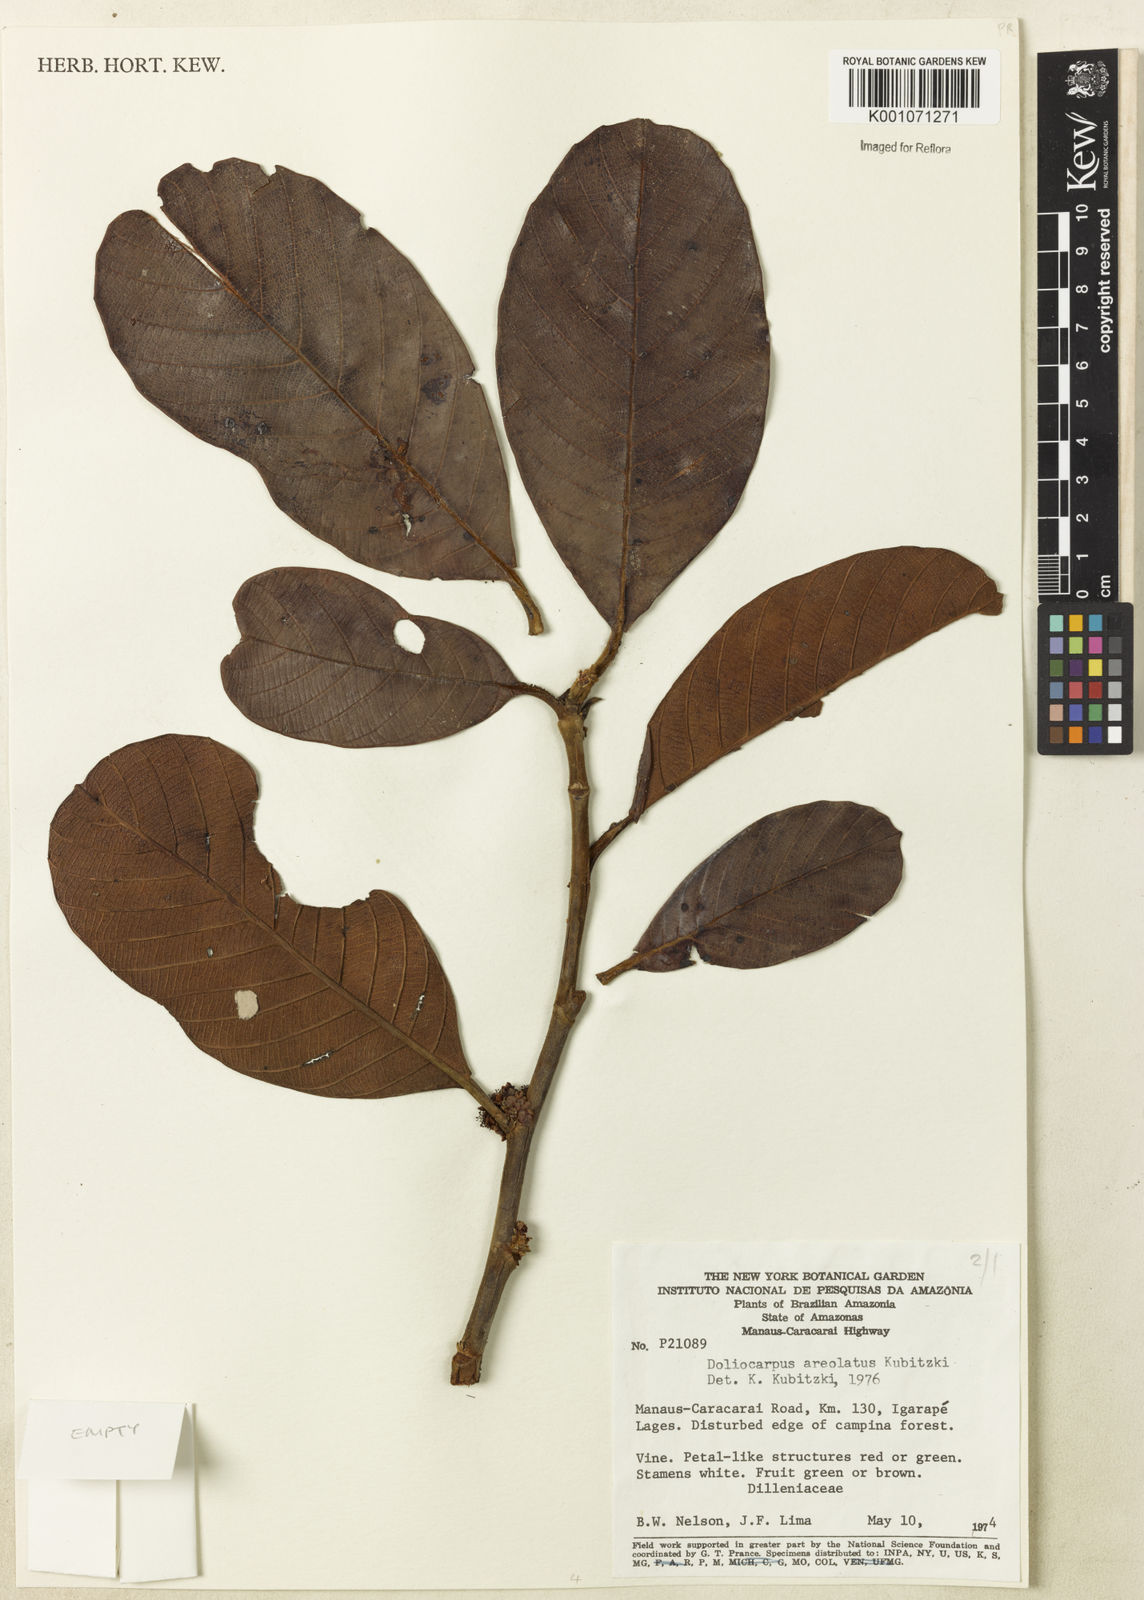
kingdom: Plantae
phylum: Tracheophyta
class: Magnoliopsida
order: Dilleniales
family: Dilleniaceae
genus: Doliocarpus
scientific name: Doliocarpus areolatus
